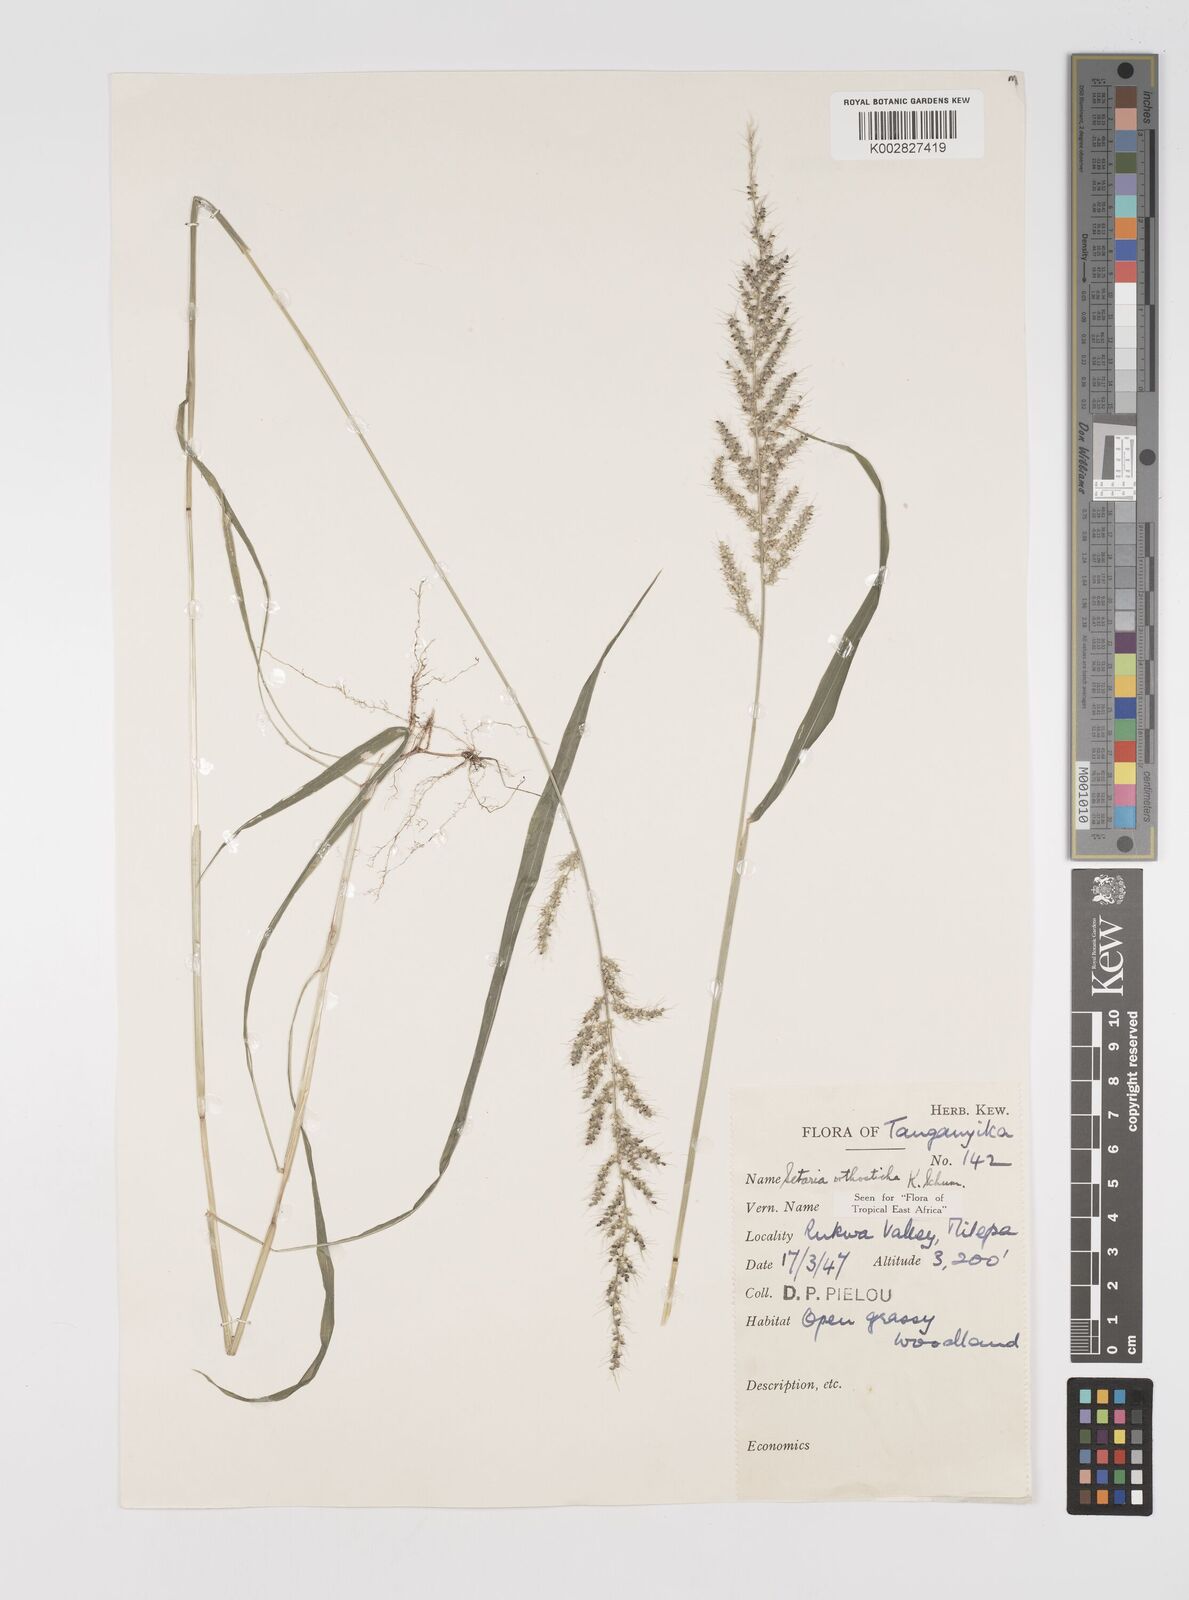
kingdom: Plantae
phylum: Tracheophyta
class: Liliopsida
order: Poales
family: Poaceae
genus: Setaria
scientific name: Setaria orthosticha
